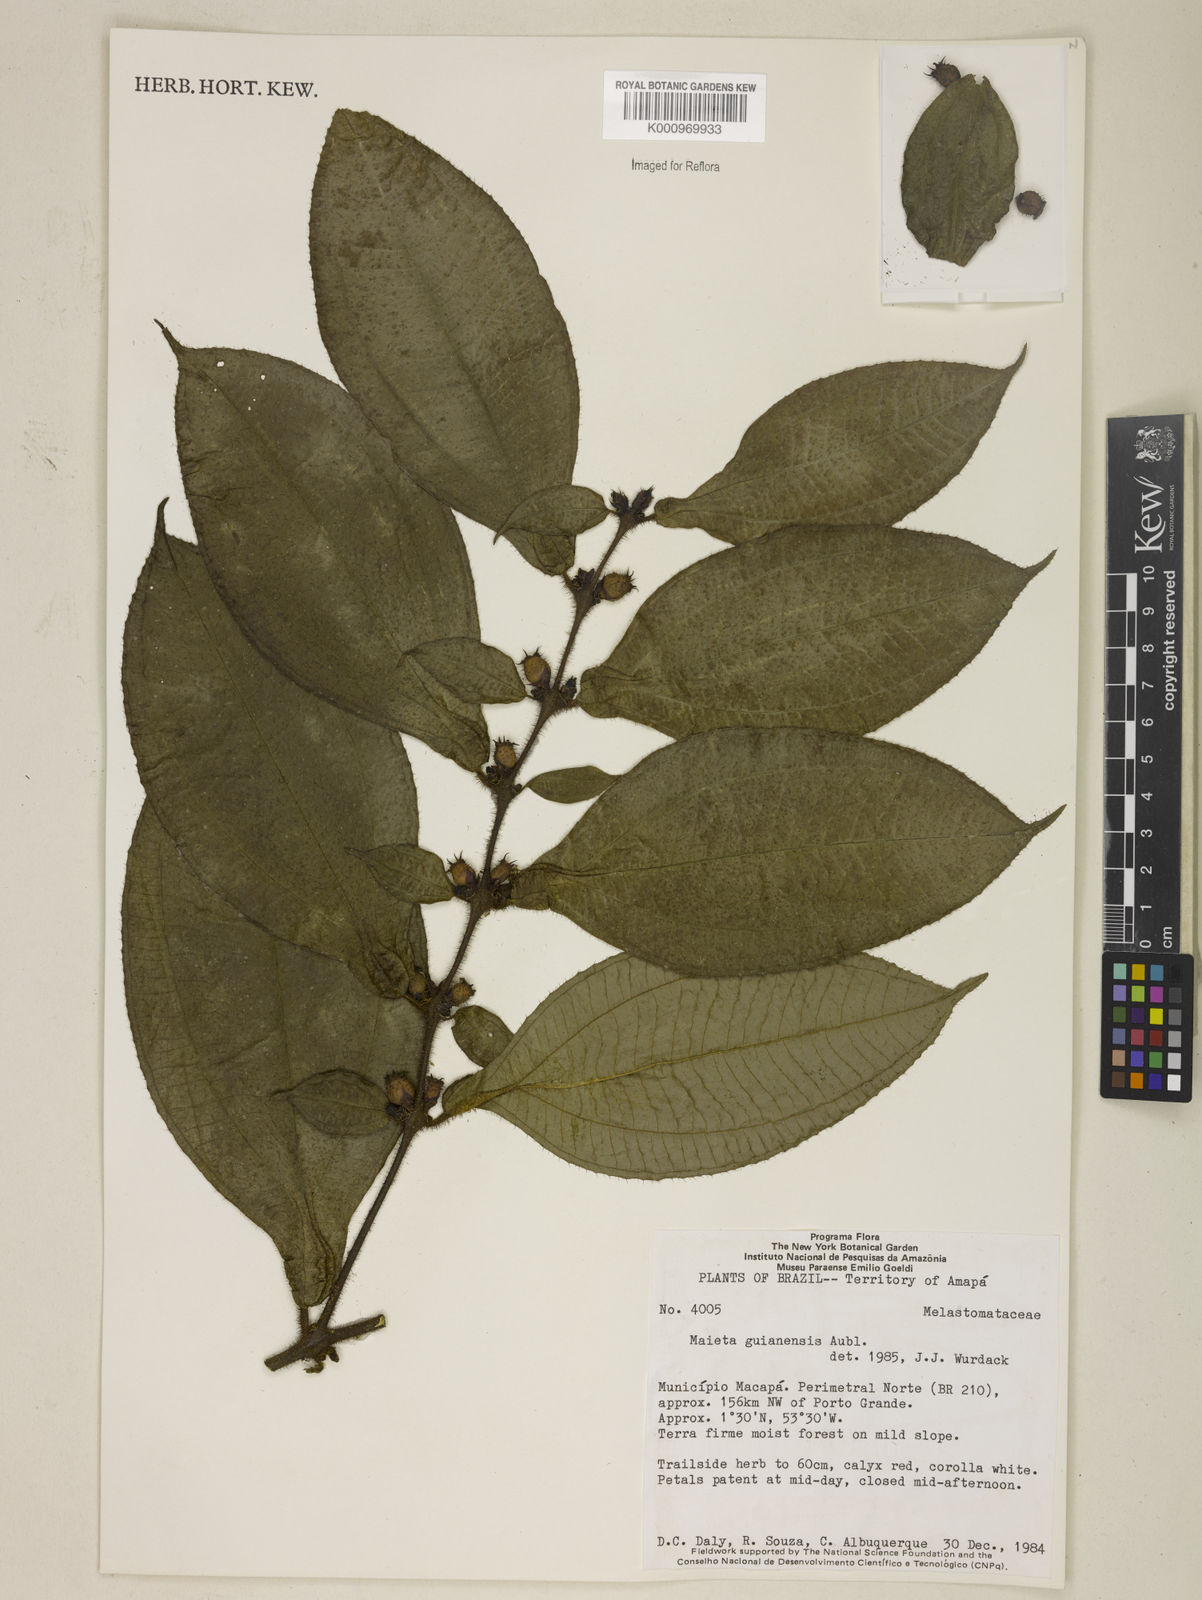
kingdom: Plantae
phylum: Tracheophyta
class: Magnoliopsida
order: Myrtales
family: Melastomataceae
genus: Miconia
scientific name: Miconia mayeta
